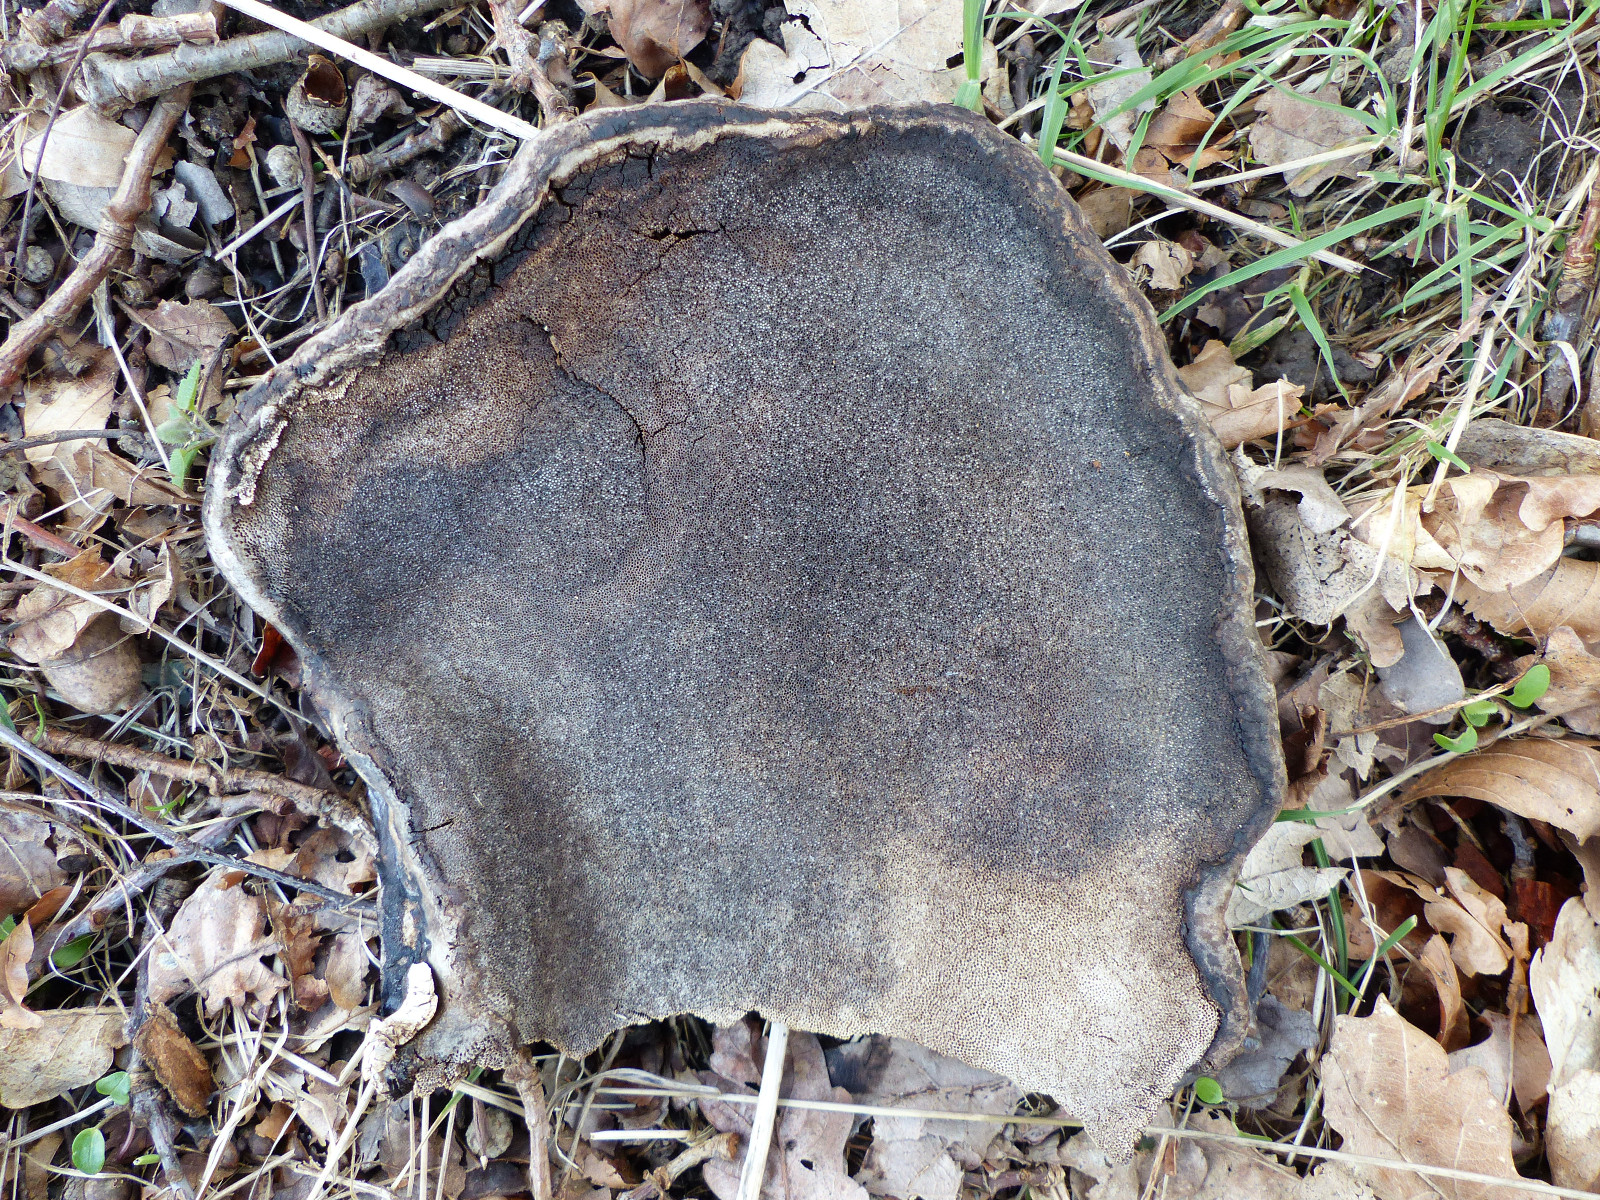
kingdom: Fungi
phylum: Basidiomycota
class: Agaricomycetes
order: Polyporales
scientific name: Polyporales
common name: poresvampordenen
